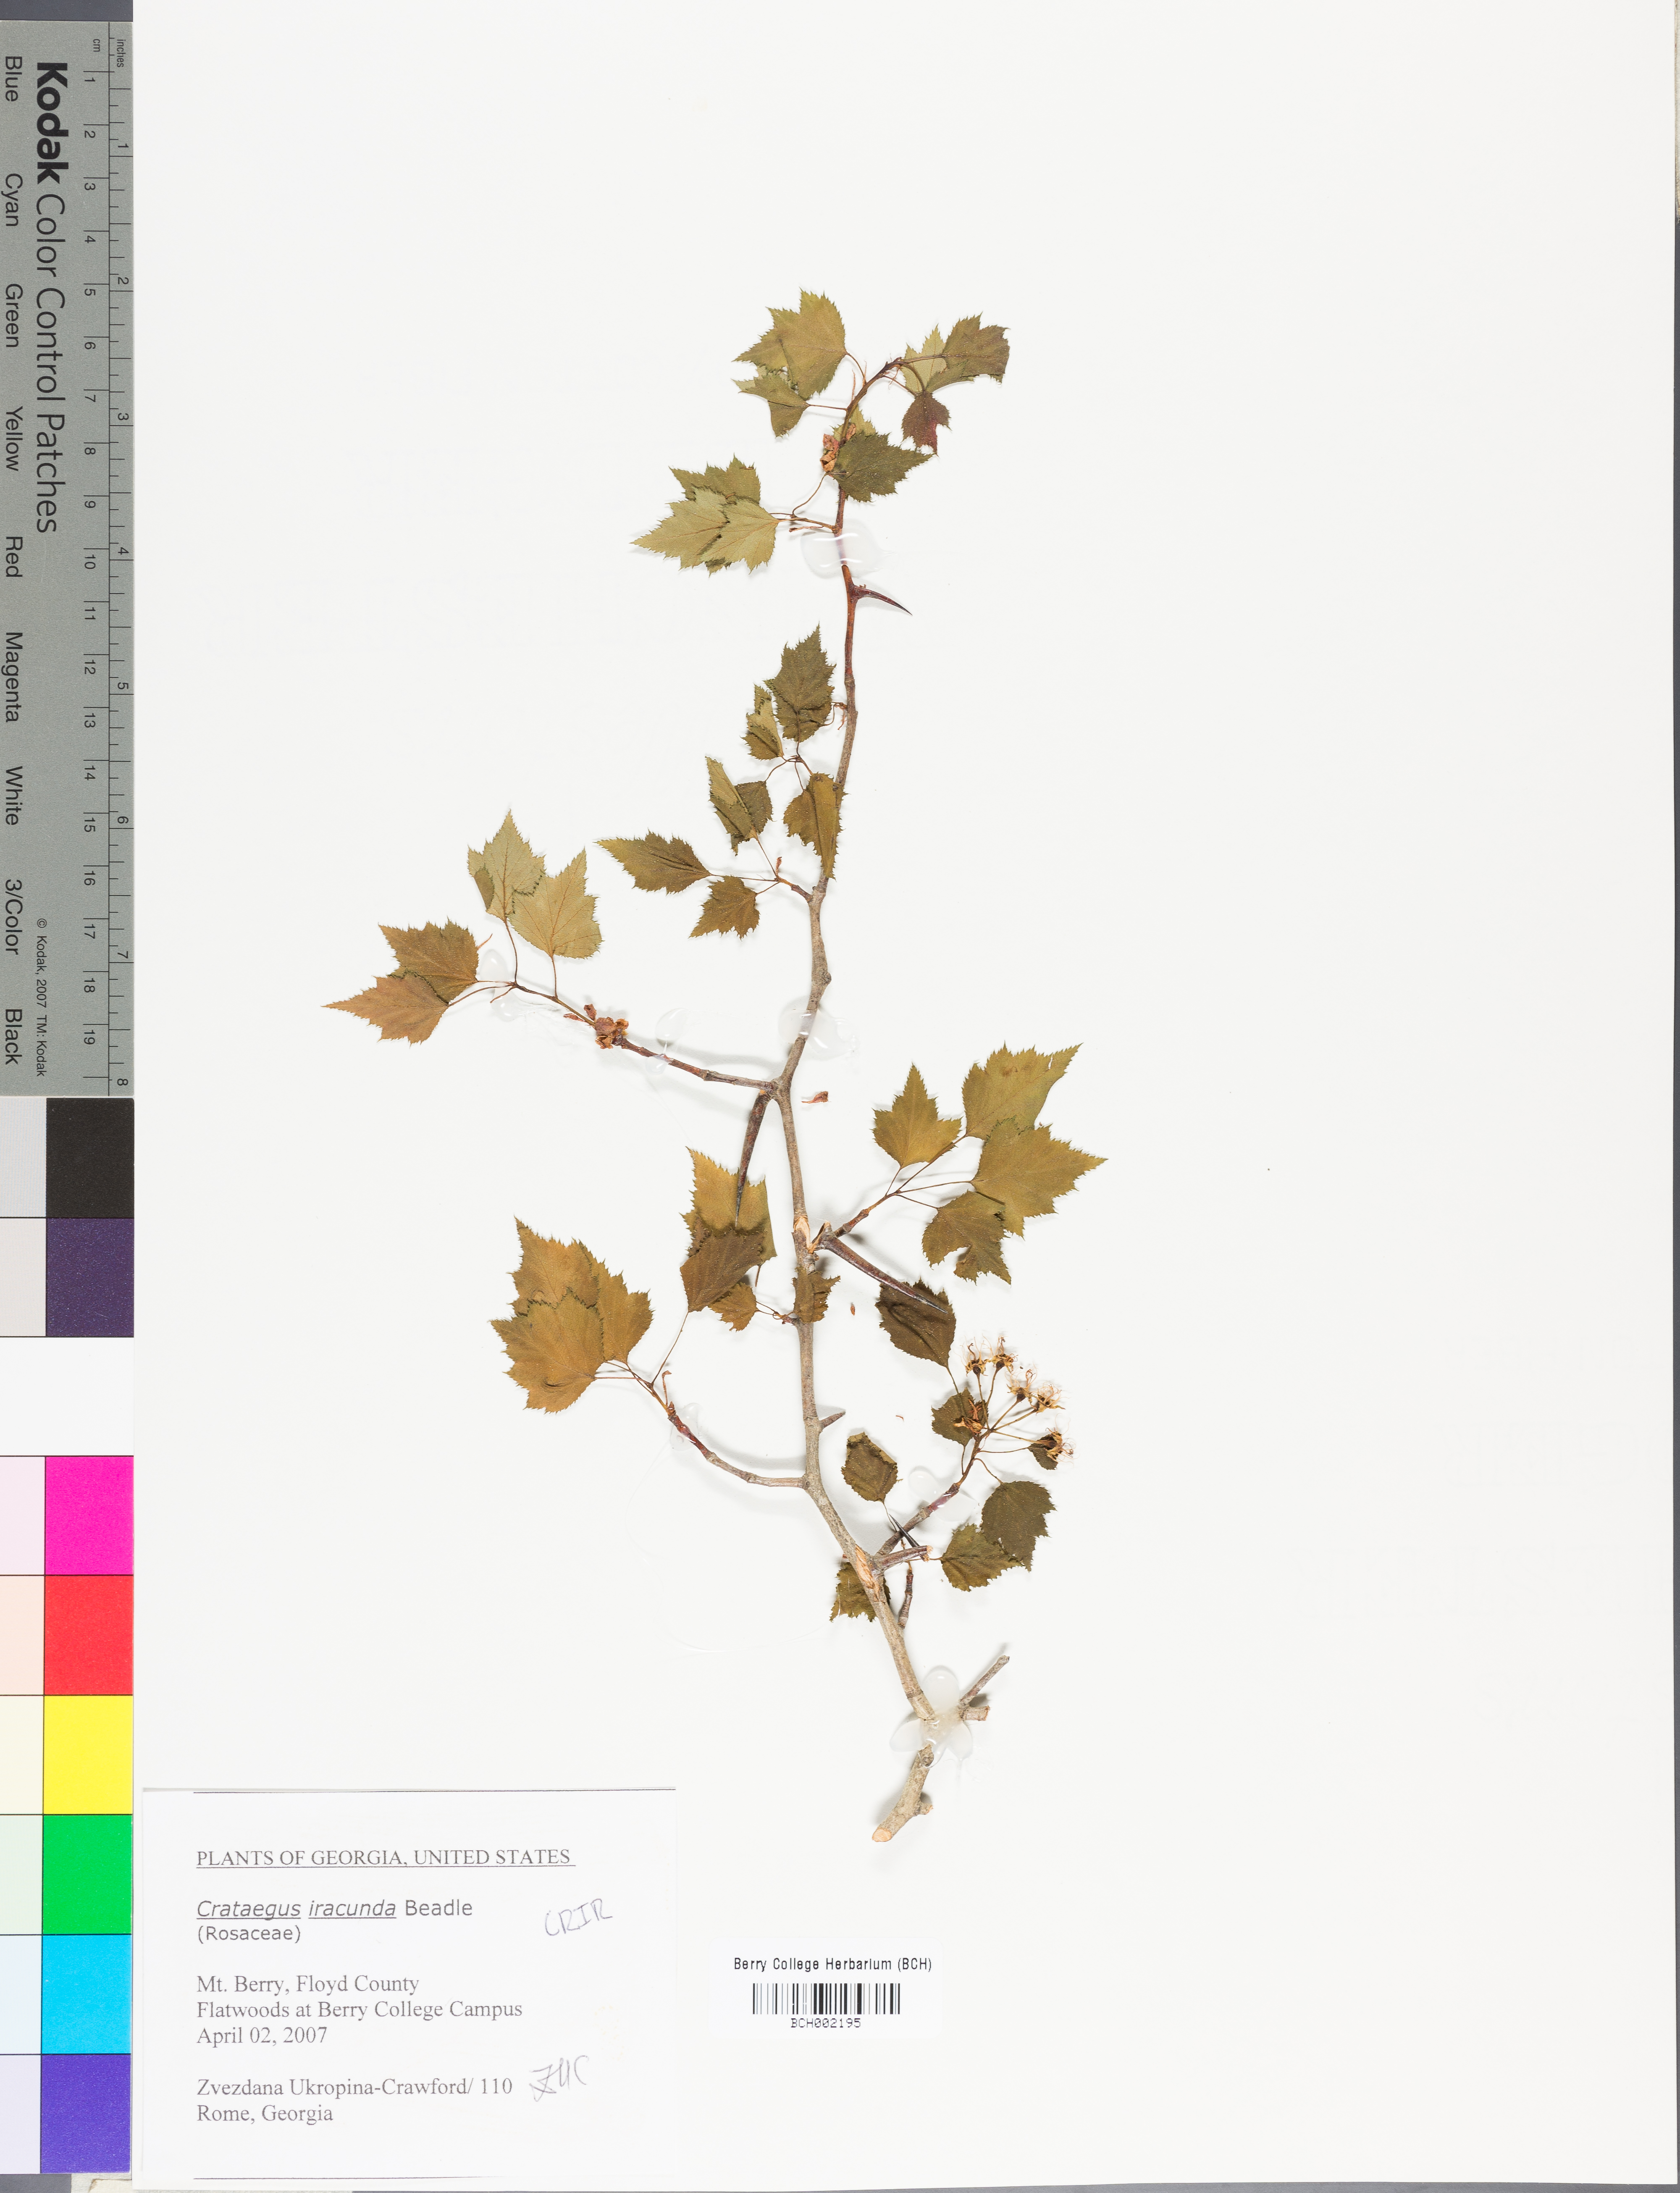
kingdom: Plantae
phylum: Tracheophyta
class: Magnoliopsida
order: Rosales
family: Rosaceae
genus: Crataegus
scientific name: Crataegus iracunda
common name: Stolon-bearing hawthorn
